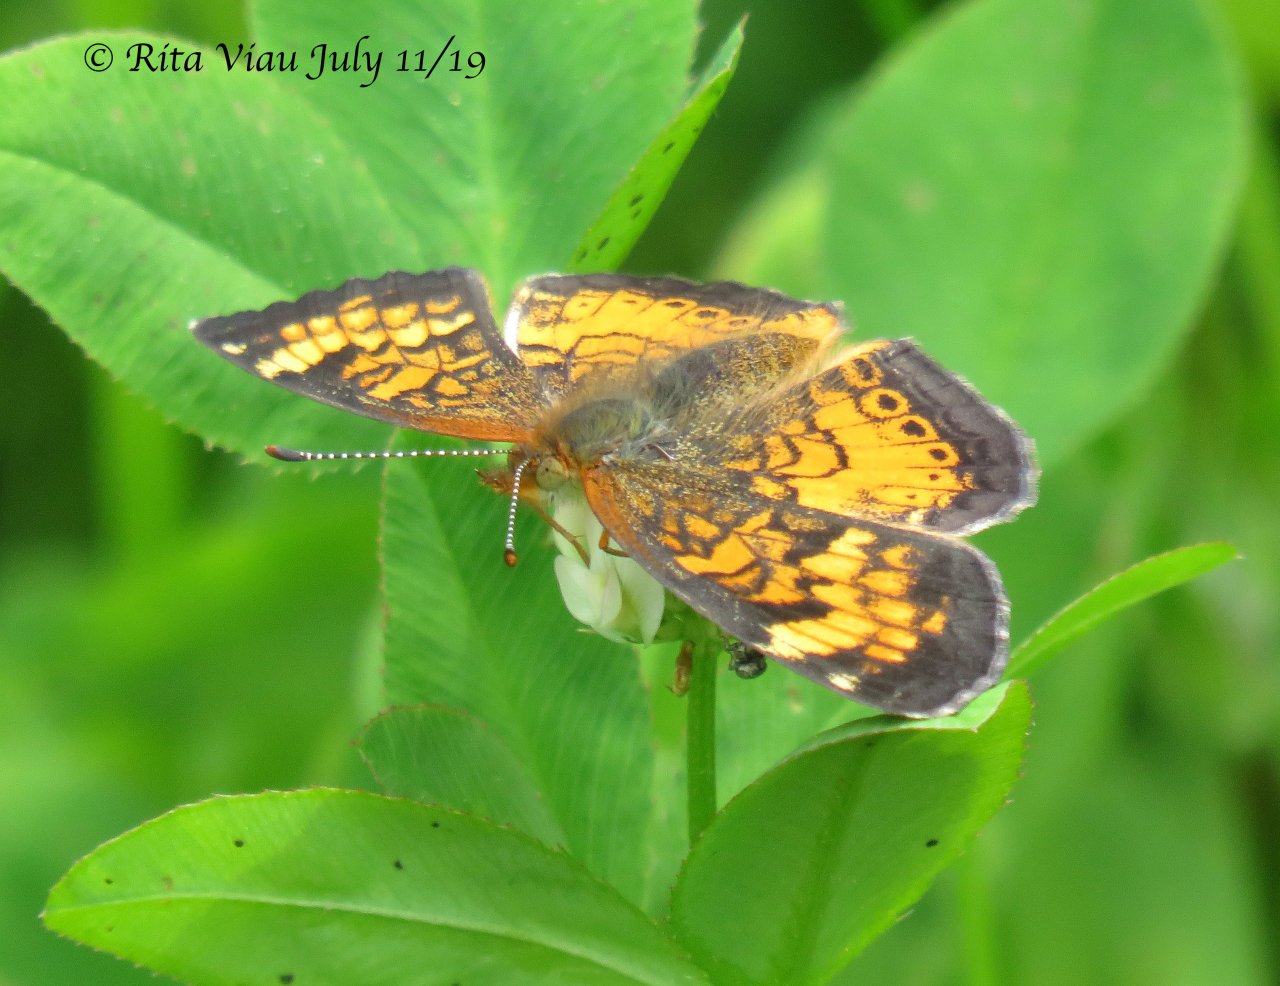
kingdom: Animalia
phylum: Arthropoda
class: Insecta
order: Lepidoptera
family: Nymphalidae
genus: Phyciodes
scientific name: Phyciodes tharos
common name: Northern Crescent
